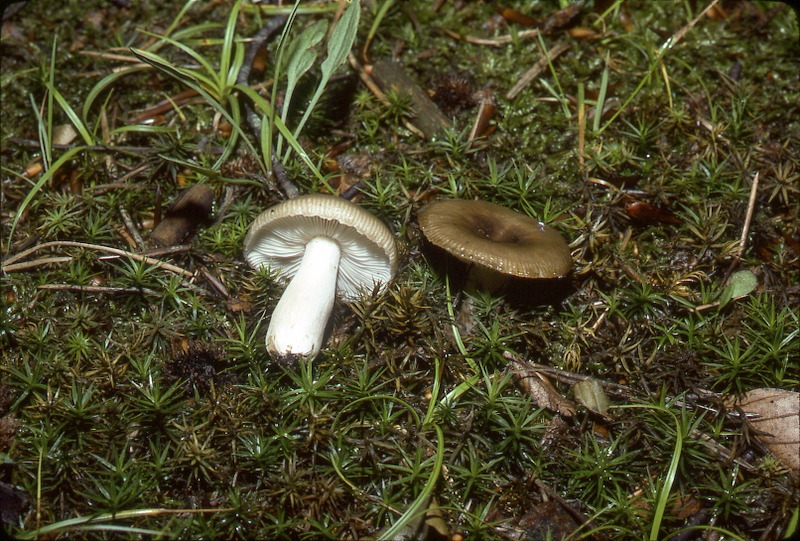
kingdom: Fungi
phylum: Basidiomycota
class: Agaricomycetes
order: Russulales
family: Russulaceae
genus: Russula
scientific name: Russula sororia
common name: Sepia brittlegill
